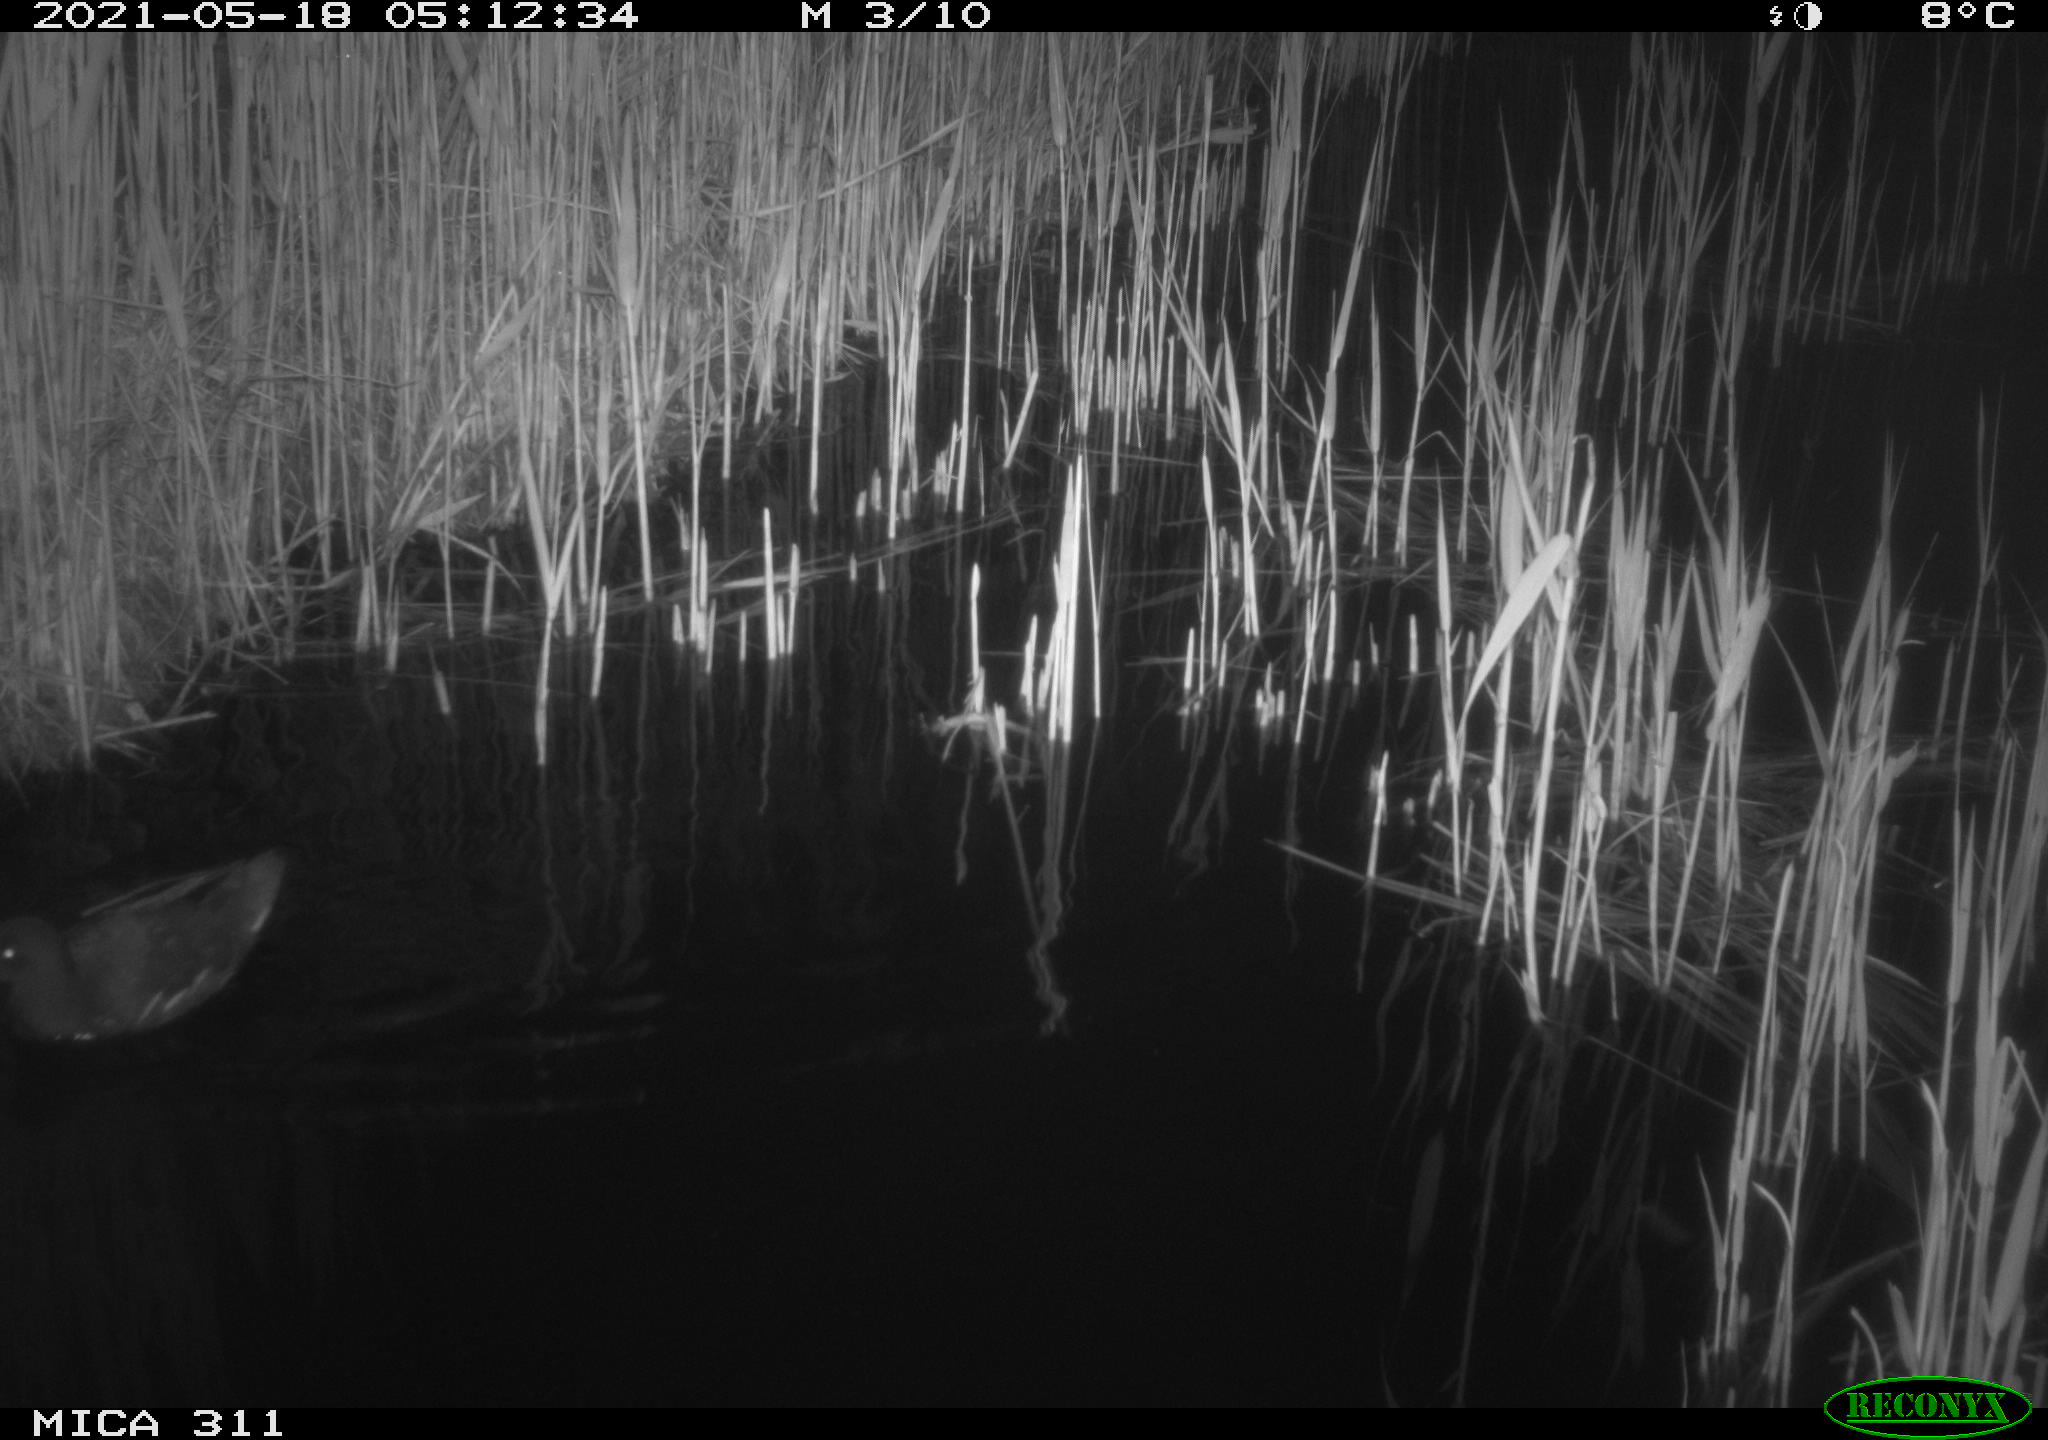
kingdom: Animalia
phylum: Chordata
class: Aves
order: Gruiformes
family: Rallidae
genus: Gallinula
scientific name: Gallinula chloropus
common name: Common moorhen
